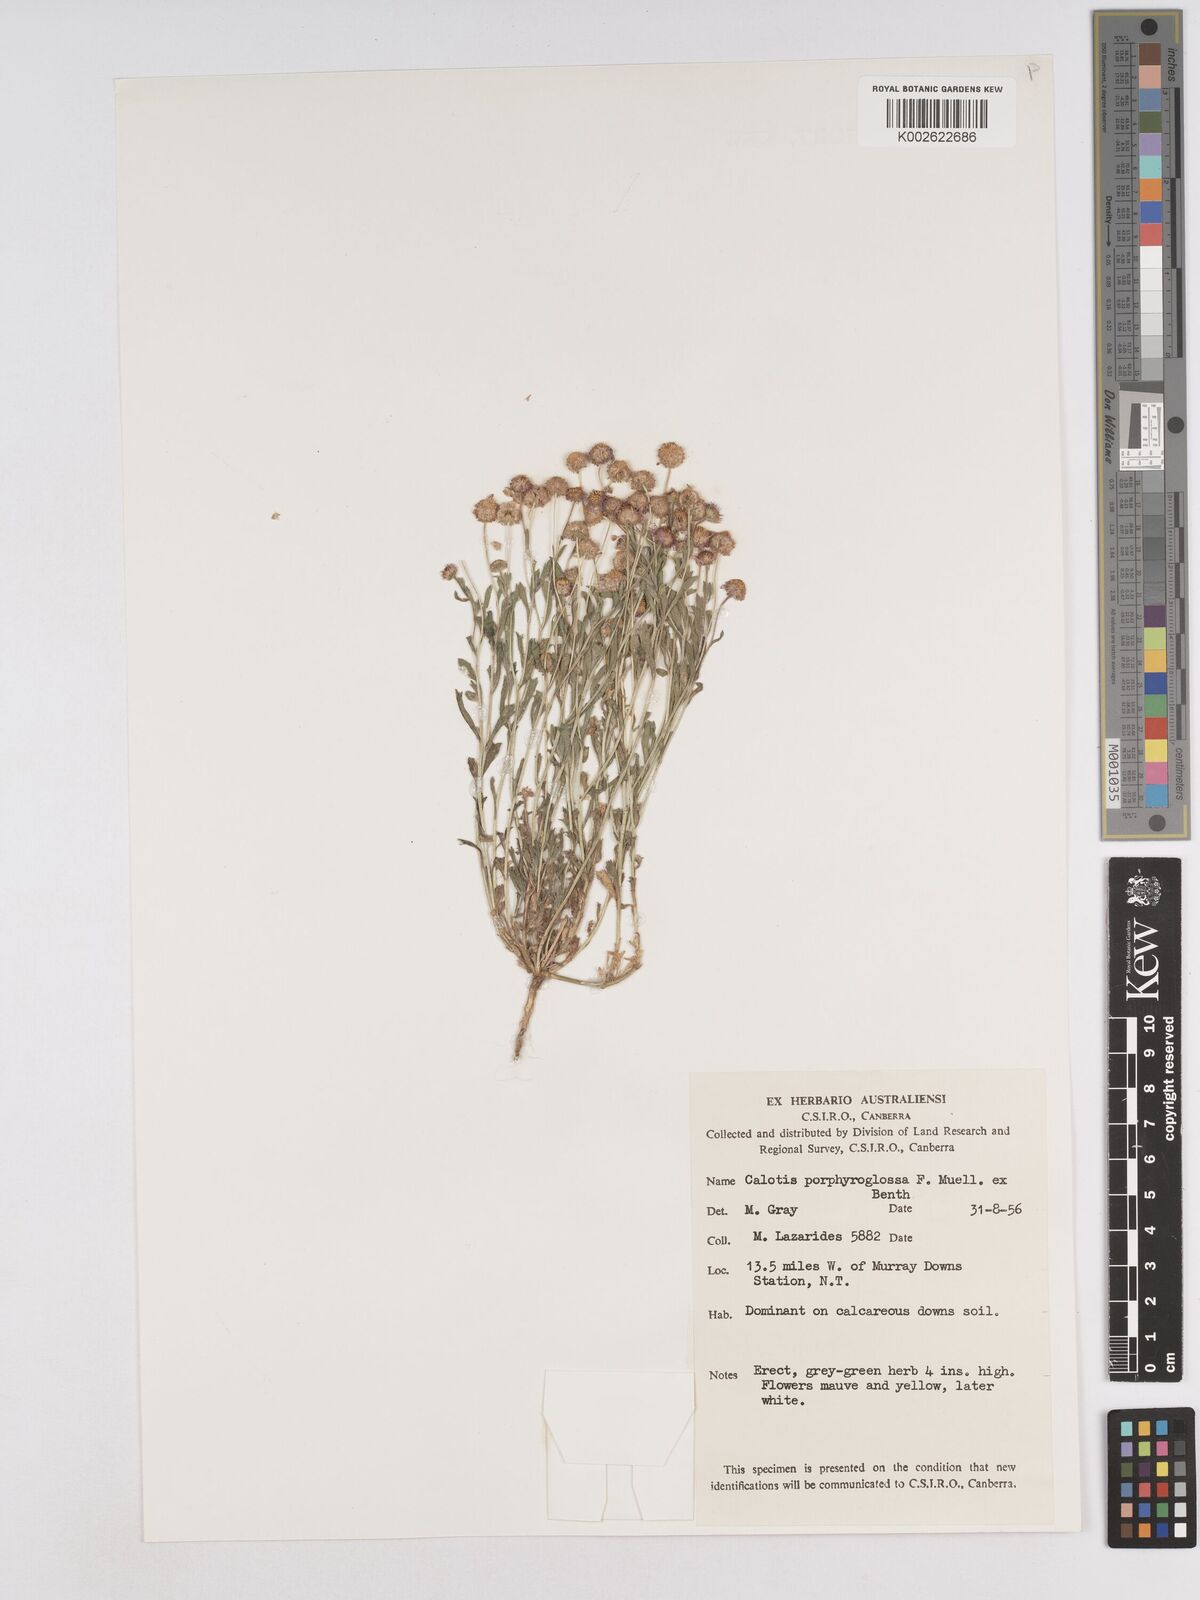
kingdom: Plantae
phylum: Tracheophyta
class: Magnoliopsida
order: Asterales
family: Asteraceae
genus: Calotis
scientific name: Calotis porphyroglossa
